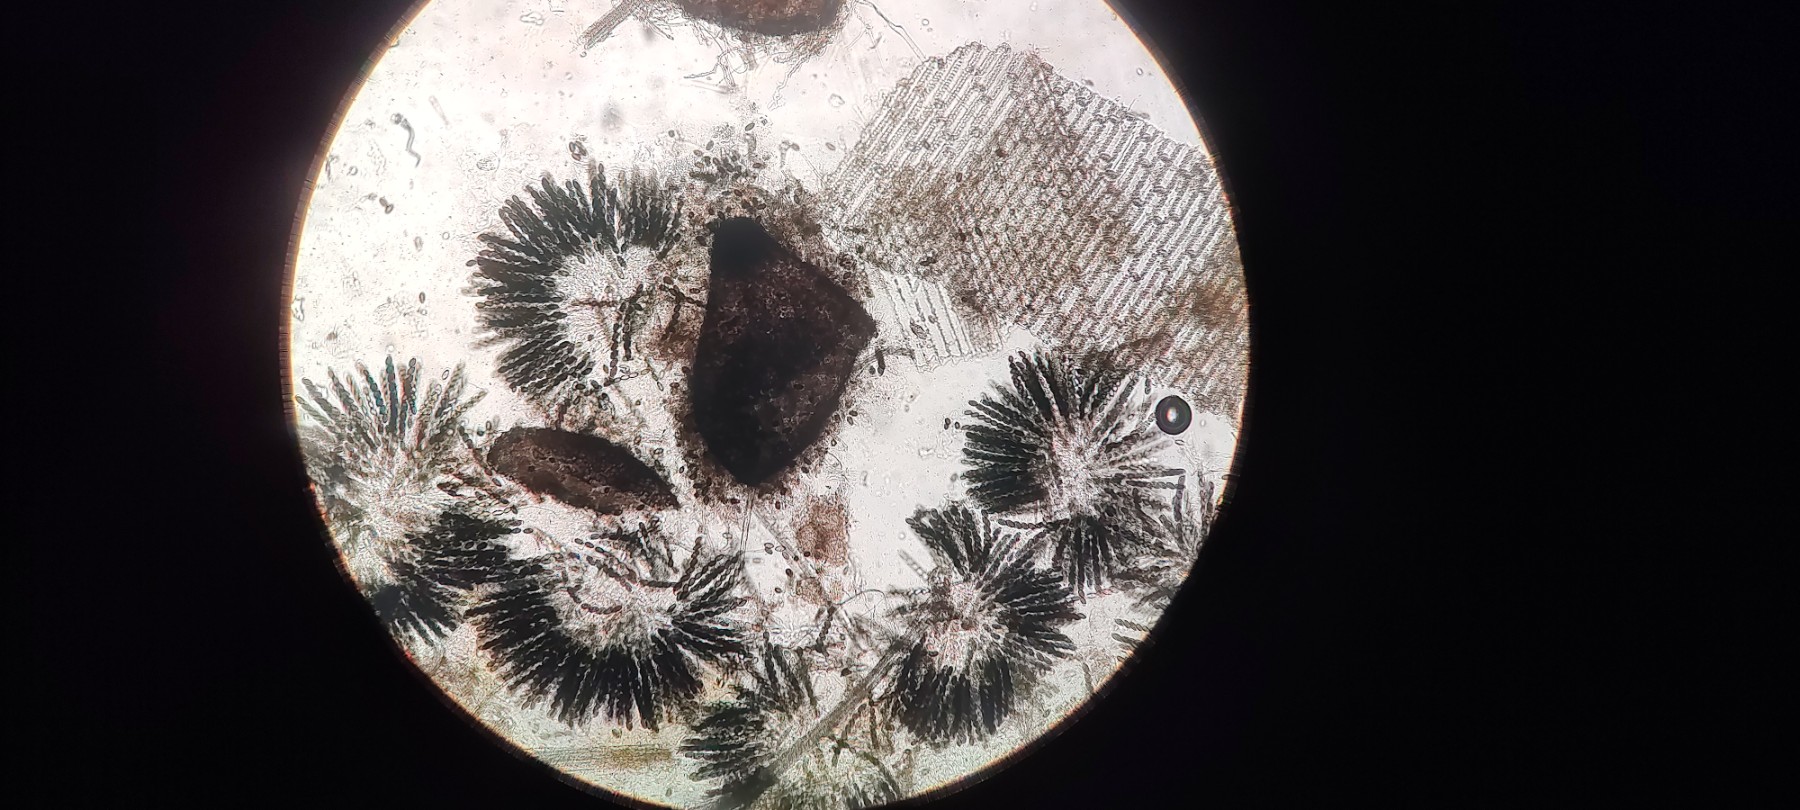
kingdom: Fungi
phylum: Ascomycota
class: Sordariomycetes
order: Sordariales
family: Sordariaceae
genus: Sordaria
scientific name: Sordaria fimicola
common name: gødnings-kernesvamp
